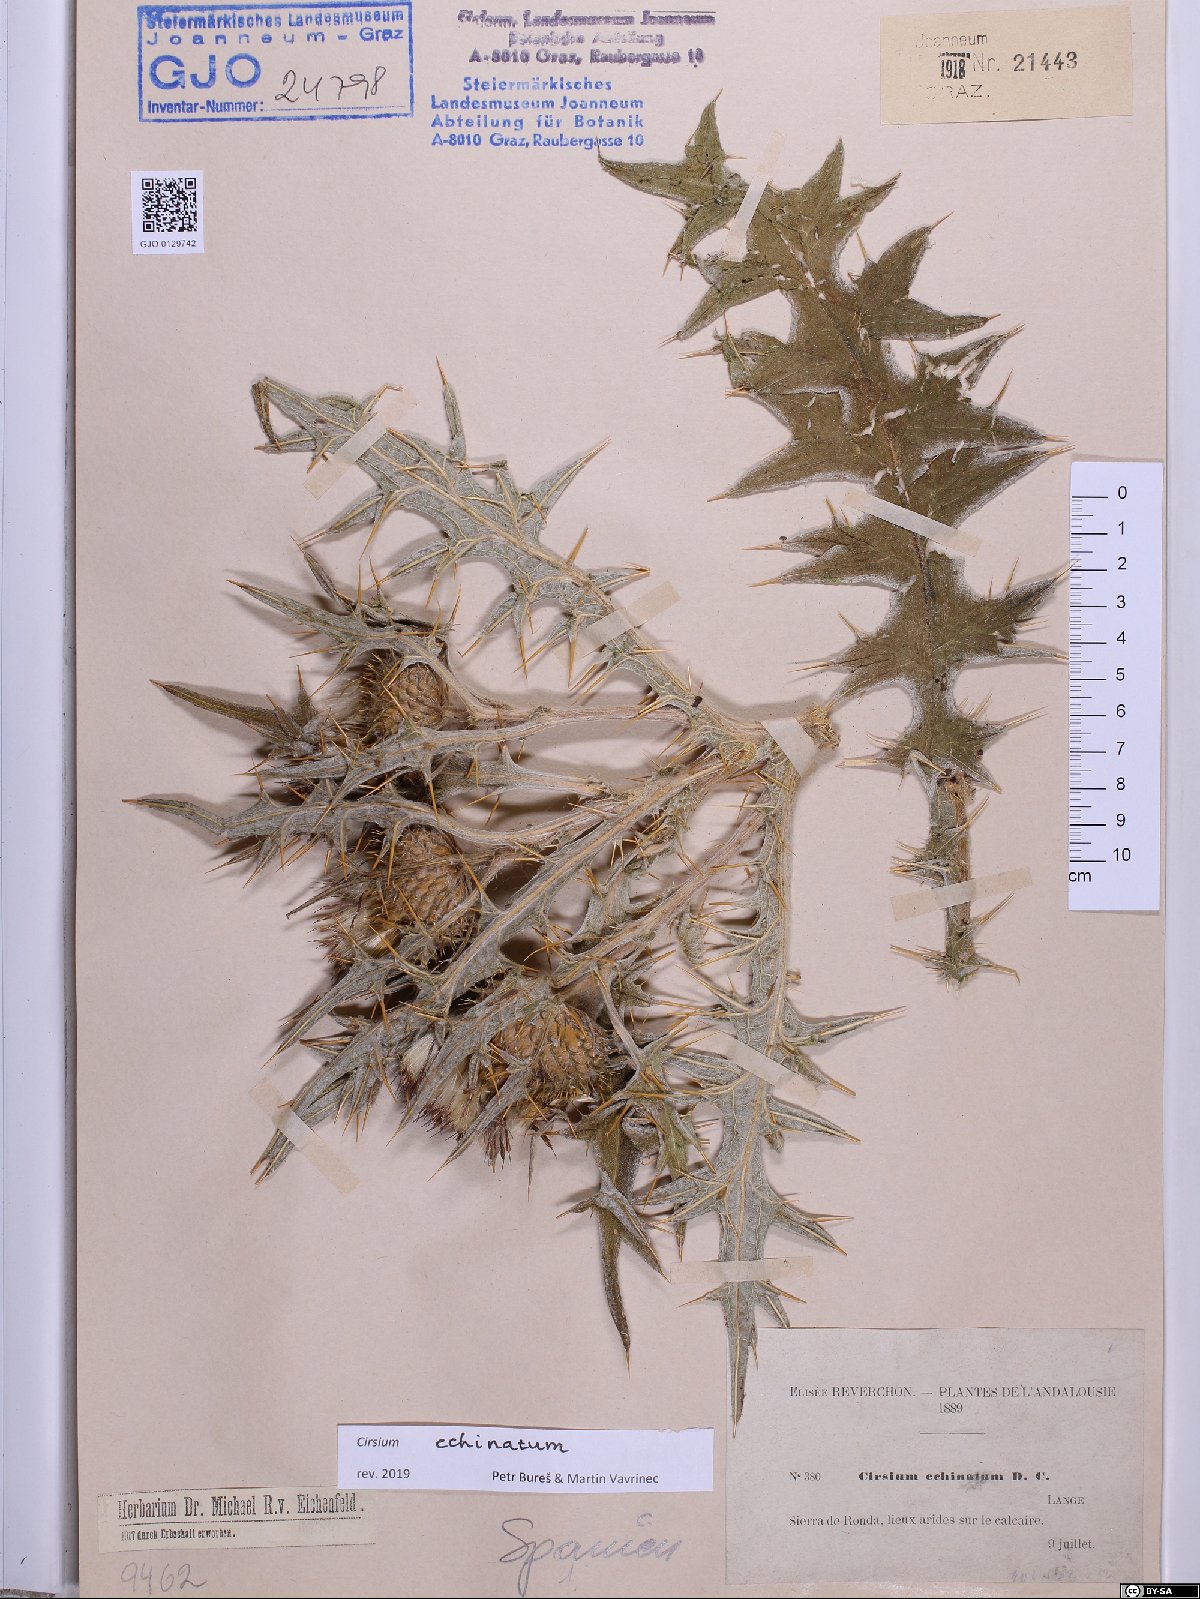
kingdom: Plantae
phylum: Tracheophyta
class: Magnoliopsida
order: Asterales
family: Asteraceae
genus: Lophiolepis
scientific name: Lophiolepis echinata
